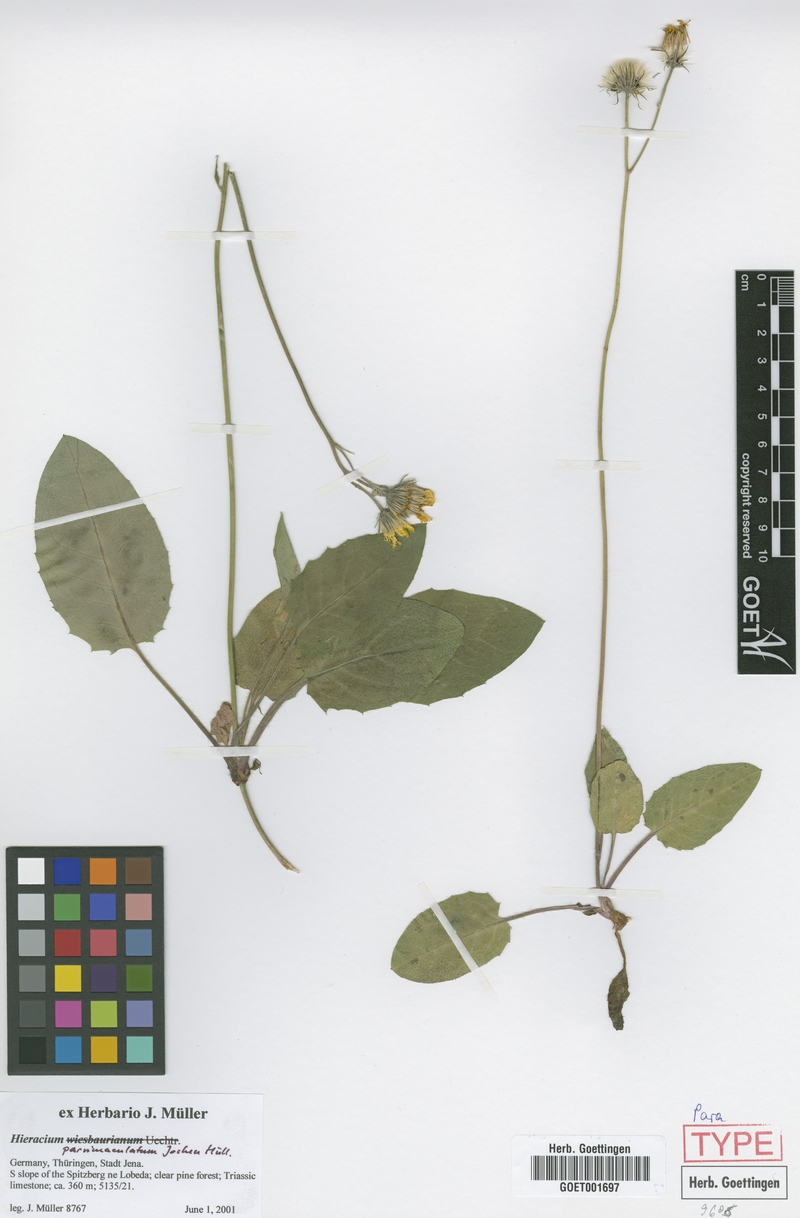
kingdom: Plantae
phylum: Tracheophyta
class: Magnoliopsida
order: Asterales
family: Asteraceae
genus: Hieracium
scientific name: Hieracium hypochoeroides
